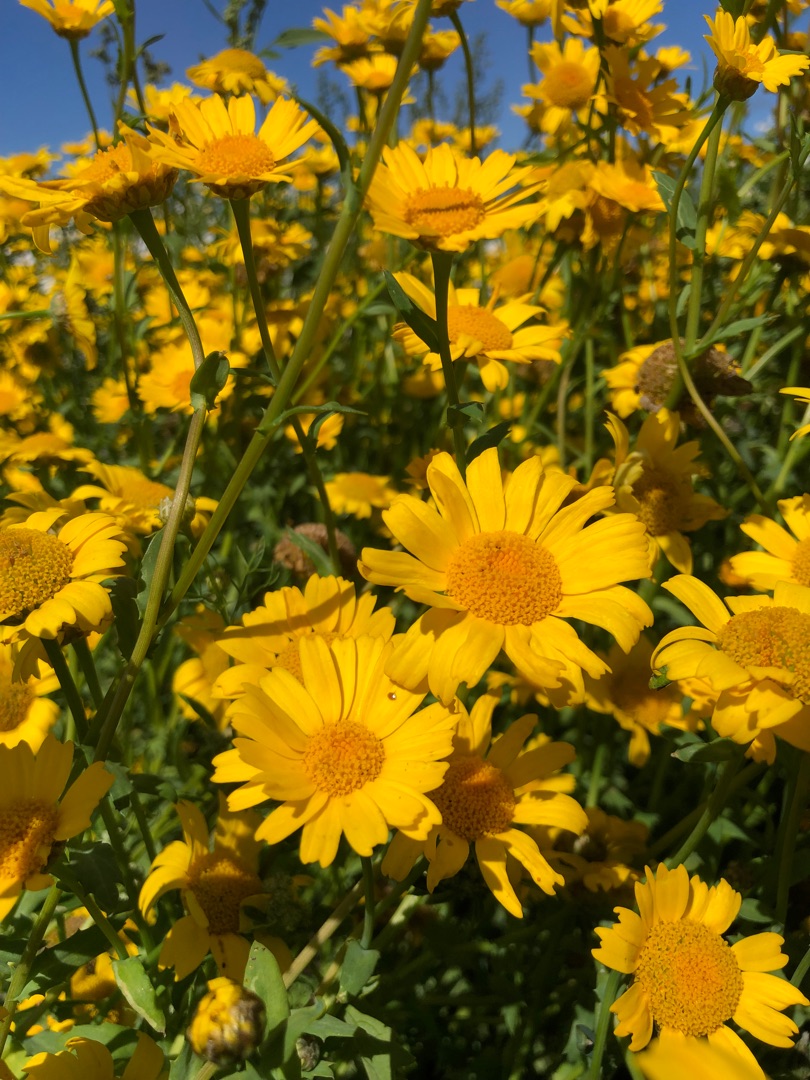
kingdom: Plantae
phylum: Tracheophyta
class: Magnoliopsida
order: Asterales
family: Asteraceae
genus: Glebionis
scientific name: Glebionis segetum
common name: Gul okseøje
